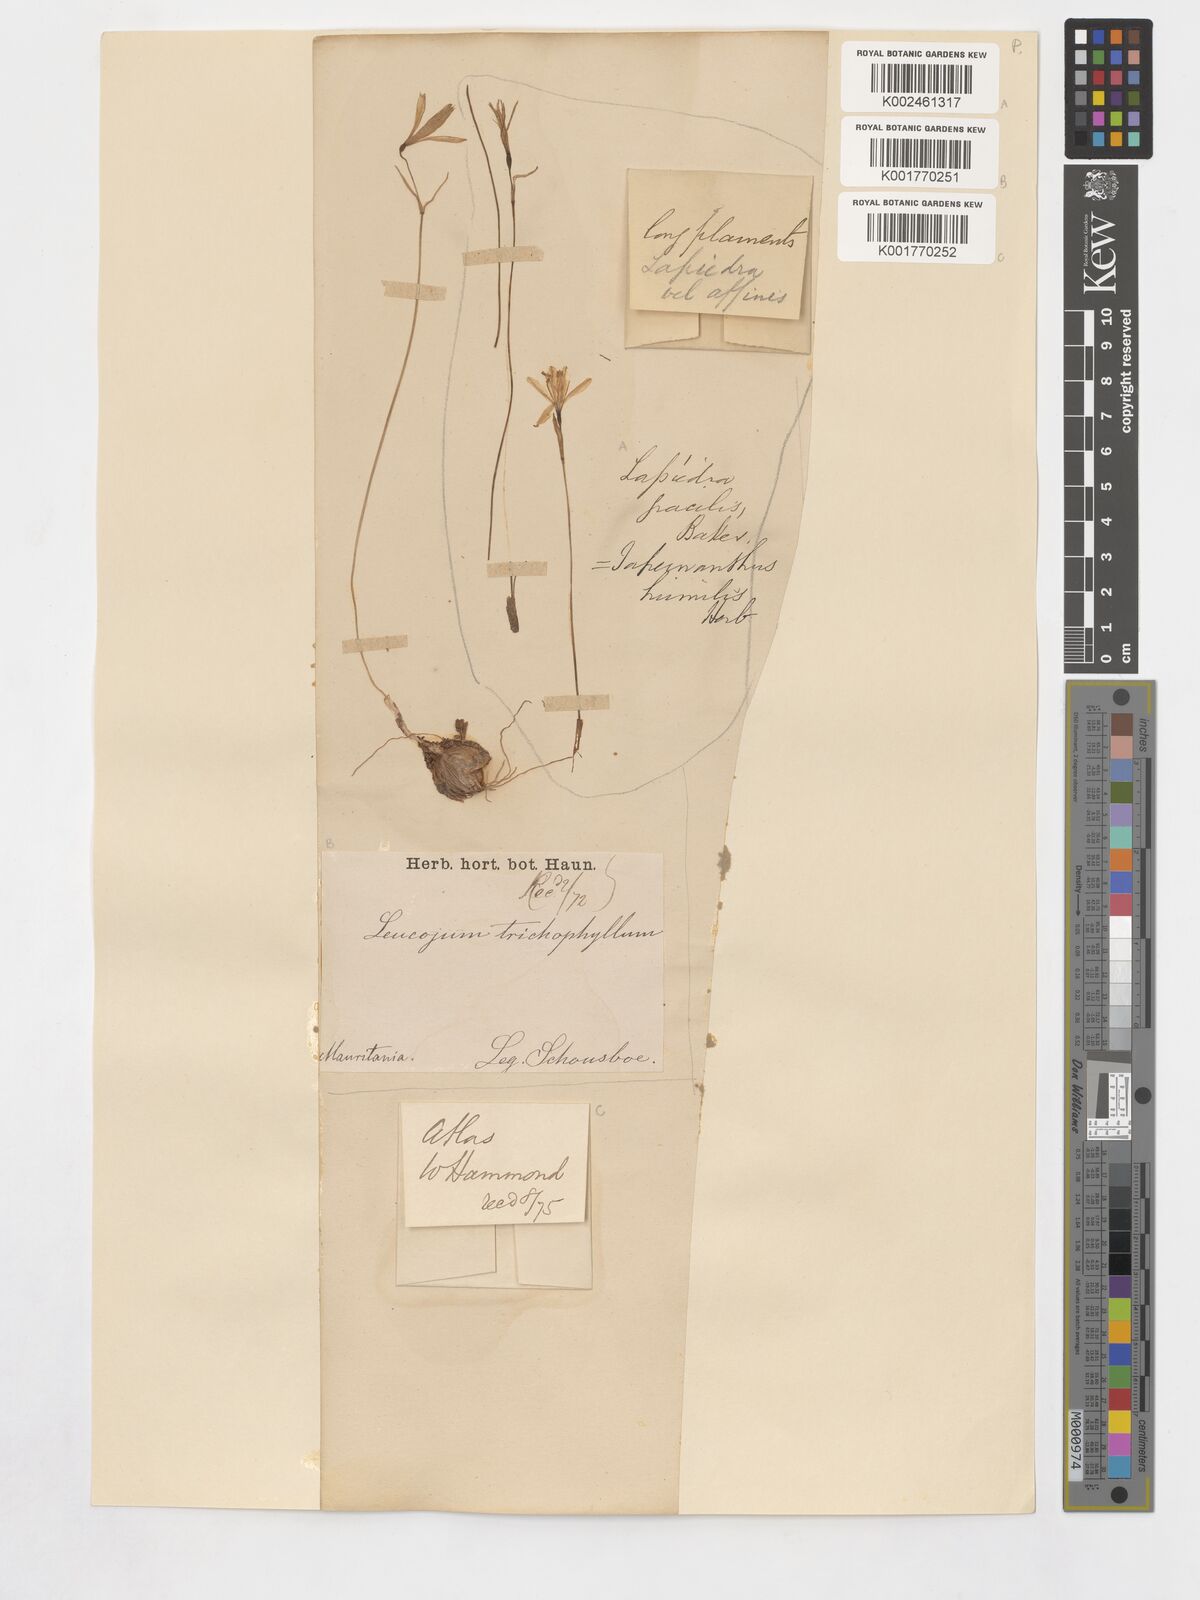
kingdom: Plantae
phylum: Tracheophyta
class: Liliopsida
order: Asparagales
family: Amaryllidaceae
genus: Acis
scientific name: Acis trichophylla
